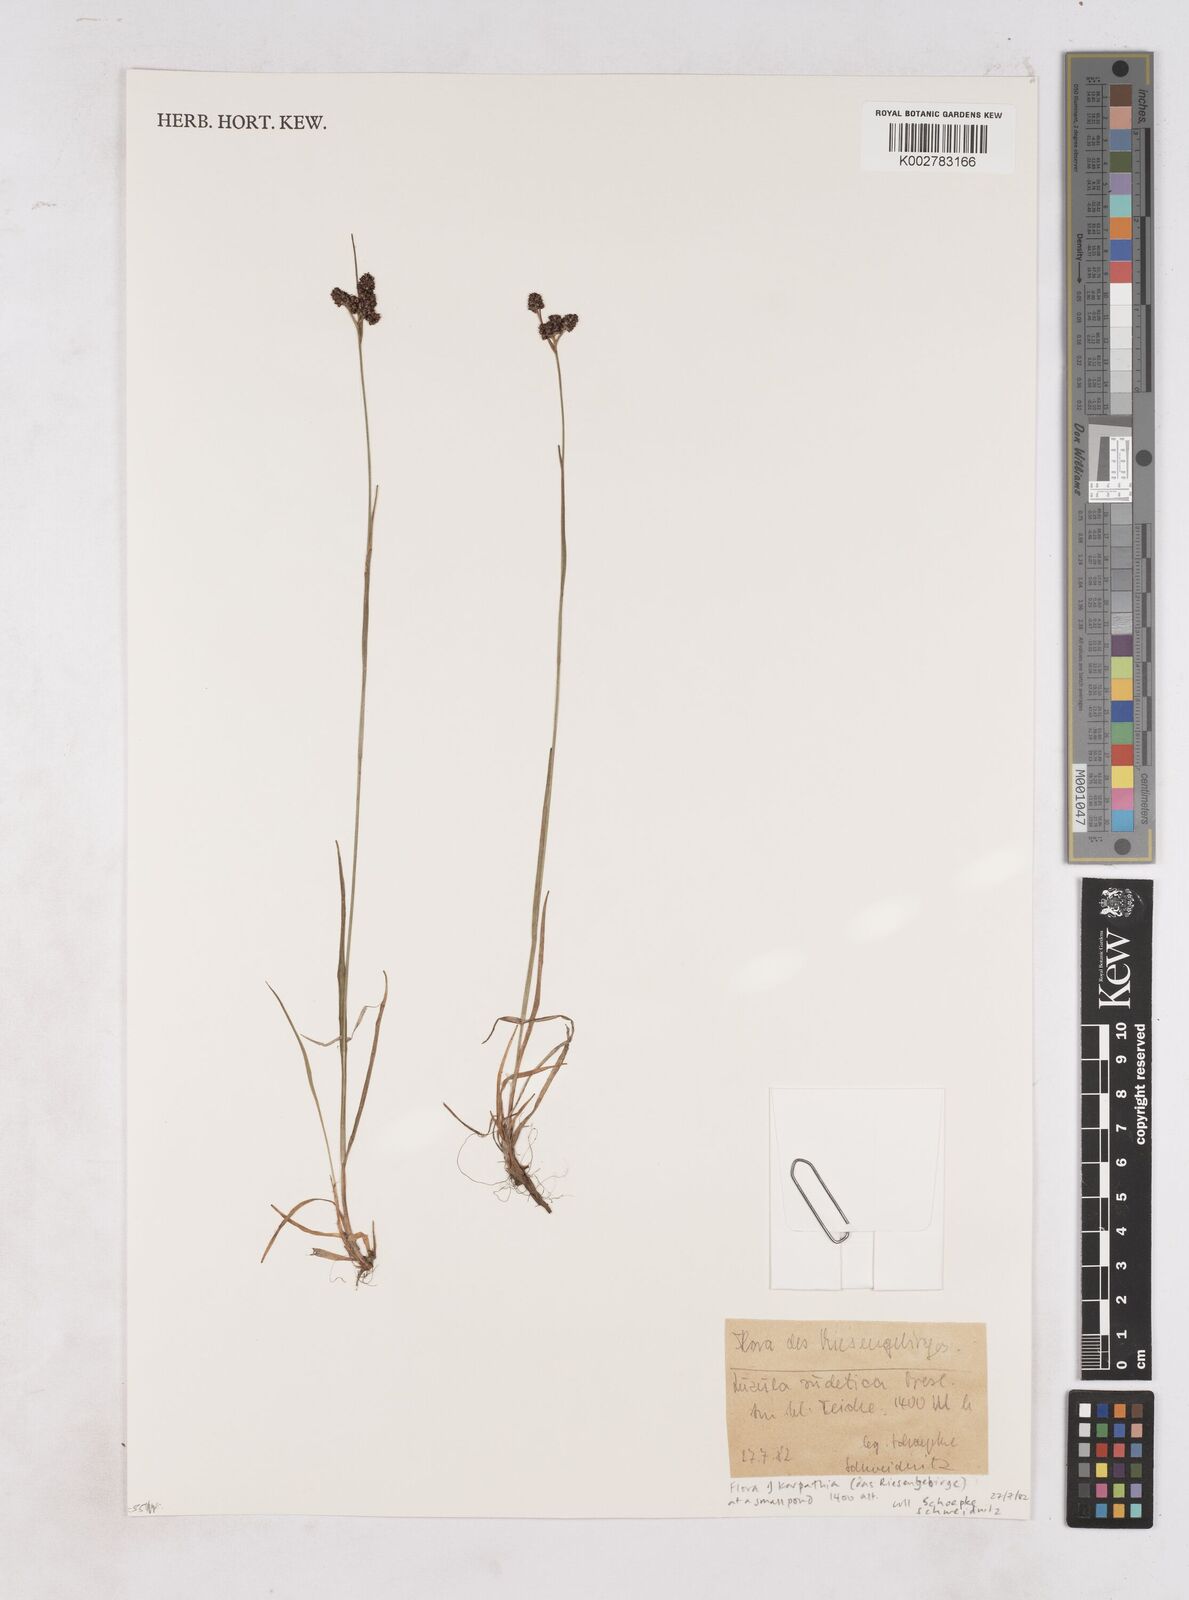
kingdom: Plantae
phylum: Tracheophyta
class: Liliopsida
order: Poales
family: Juncaceae
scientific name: Juncaceae
